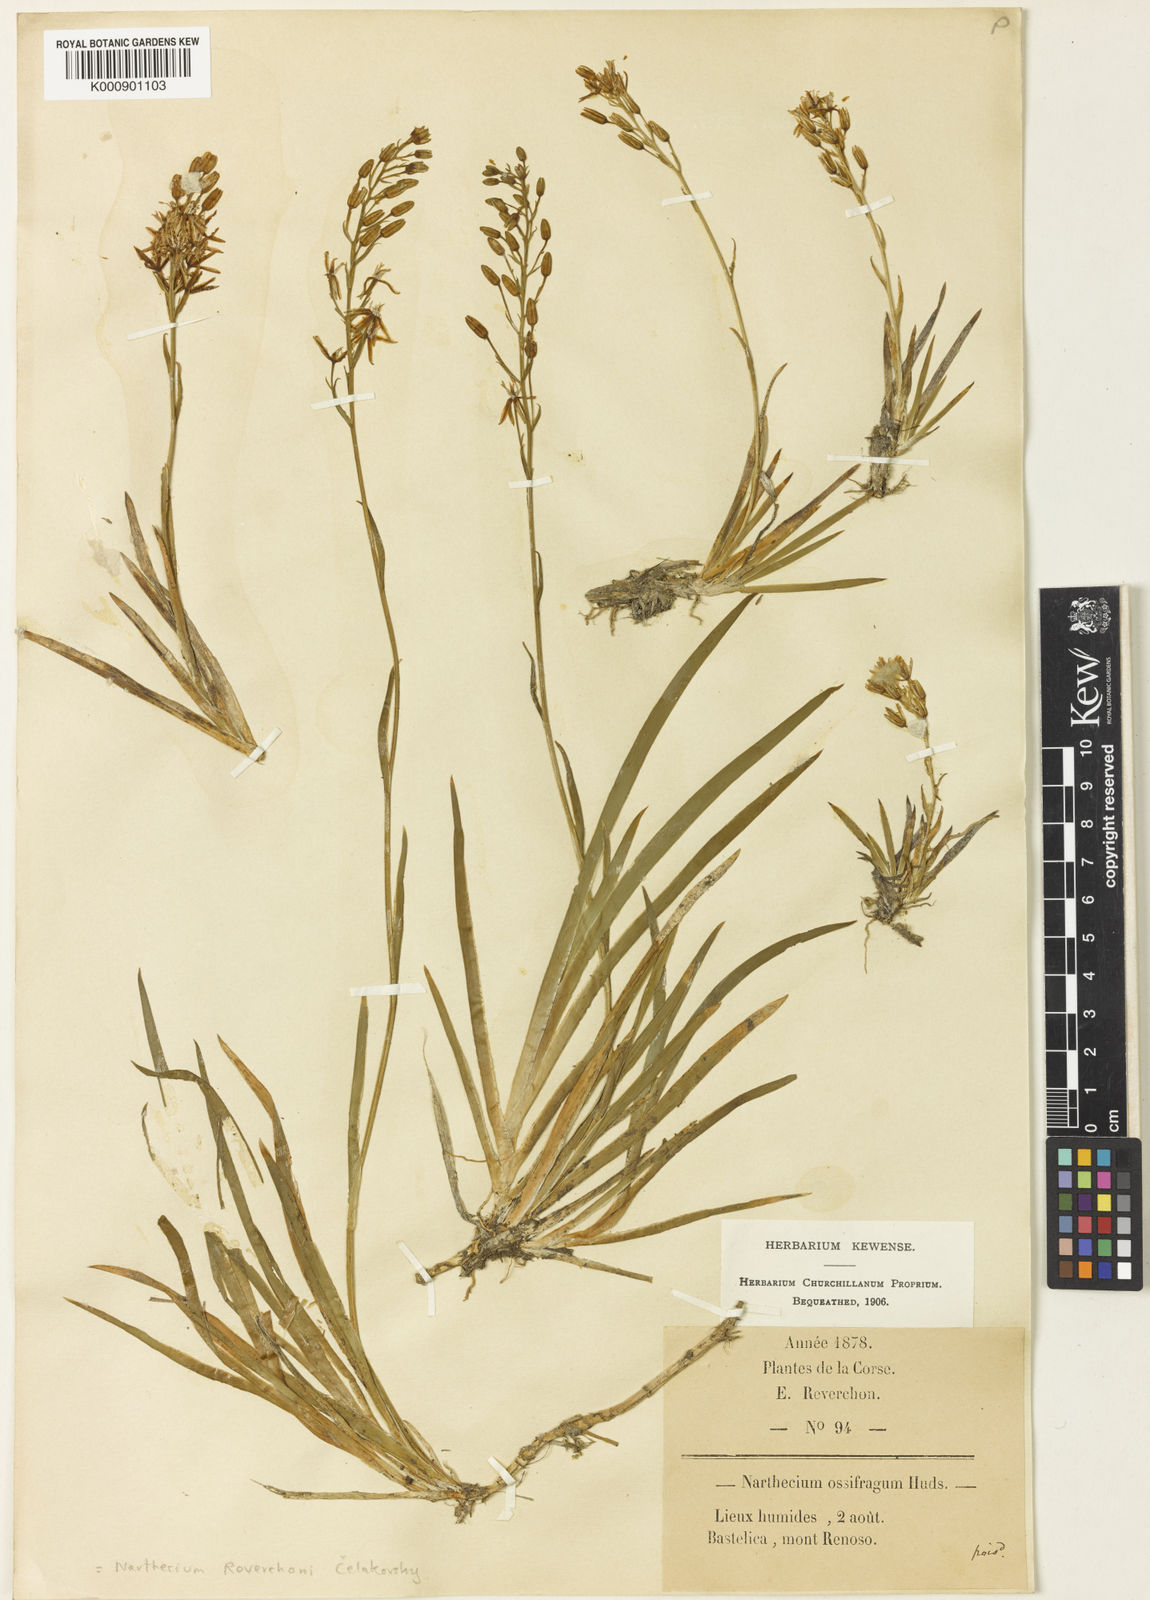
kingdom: Plantae
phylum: Tracheophyta
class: Liliopsida
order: Dioscoreales
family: Nartheciaceae
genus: Narthecium
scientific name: Narthecium ossifragum
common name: Bog asphodel
